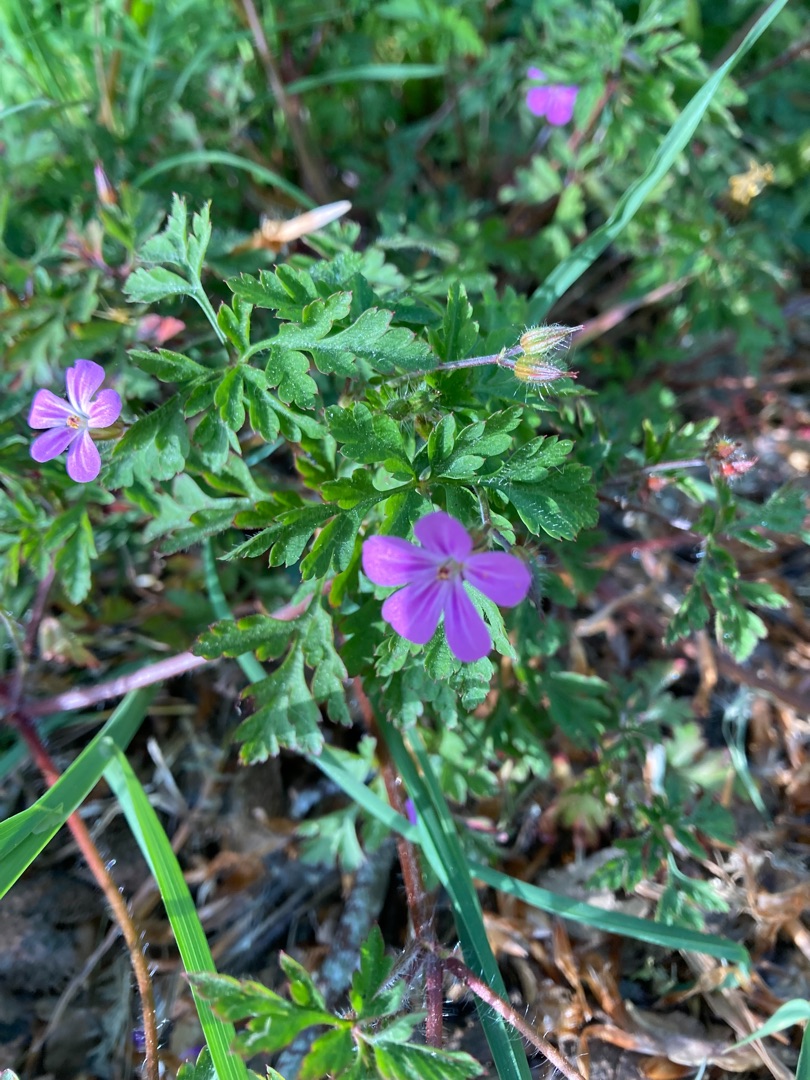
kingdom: Plantae
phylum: Tracheophyta
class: Magnoliopsida
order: Geraniales
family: Geraniaceae
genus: Geranium
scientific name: Geranium robertianum
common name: Stinkende storkenæb
